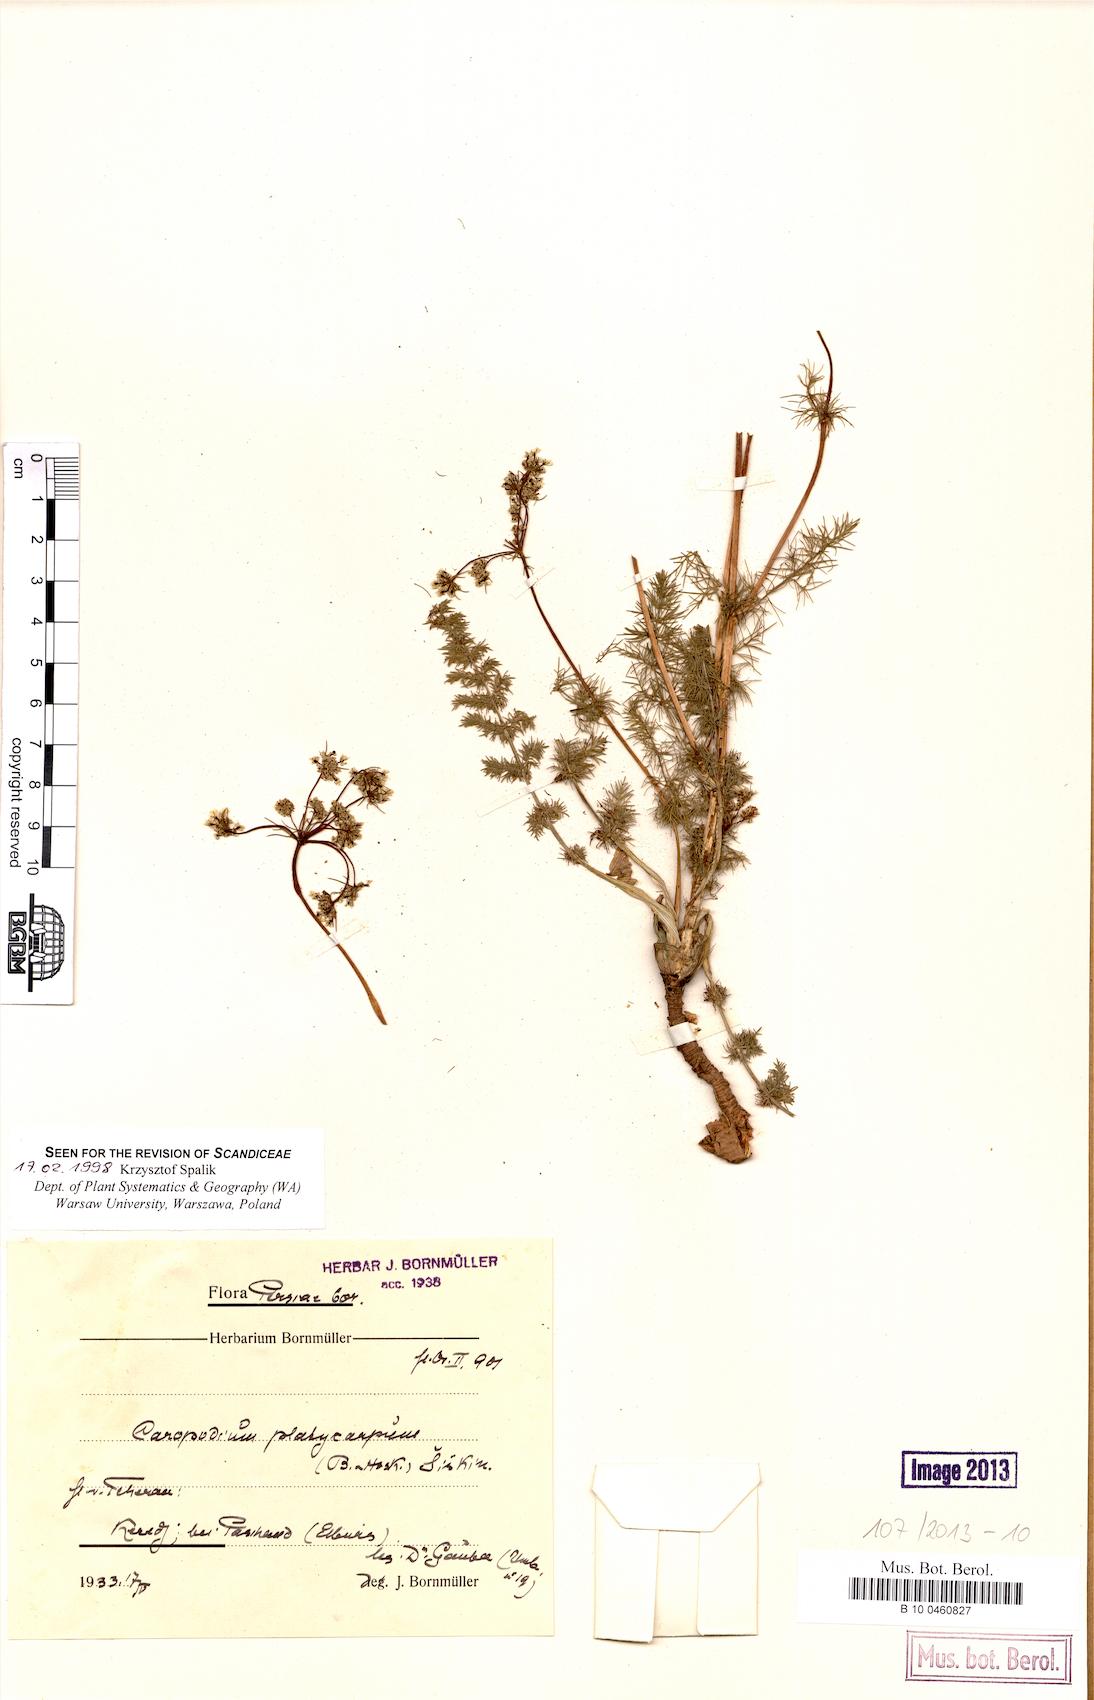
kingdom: Plantae
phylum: Tracheophyta
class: Magnoliopsida
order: Apiales
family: Apiaceae
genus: Caropodium
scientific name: Caropodium platycarpum
